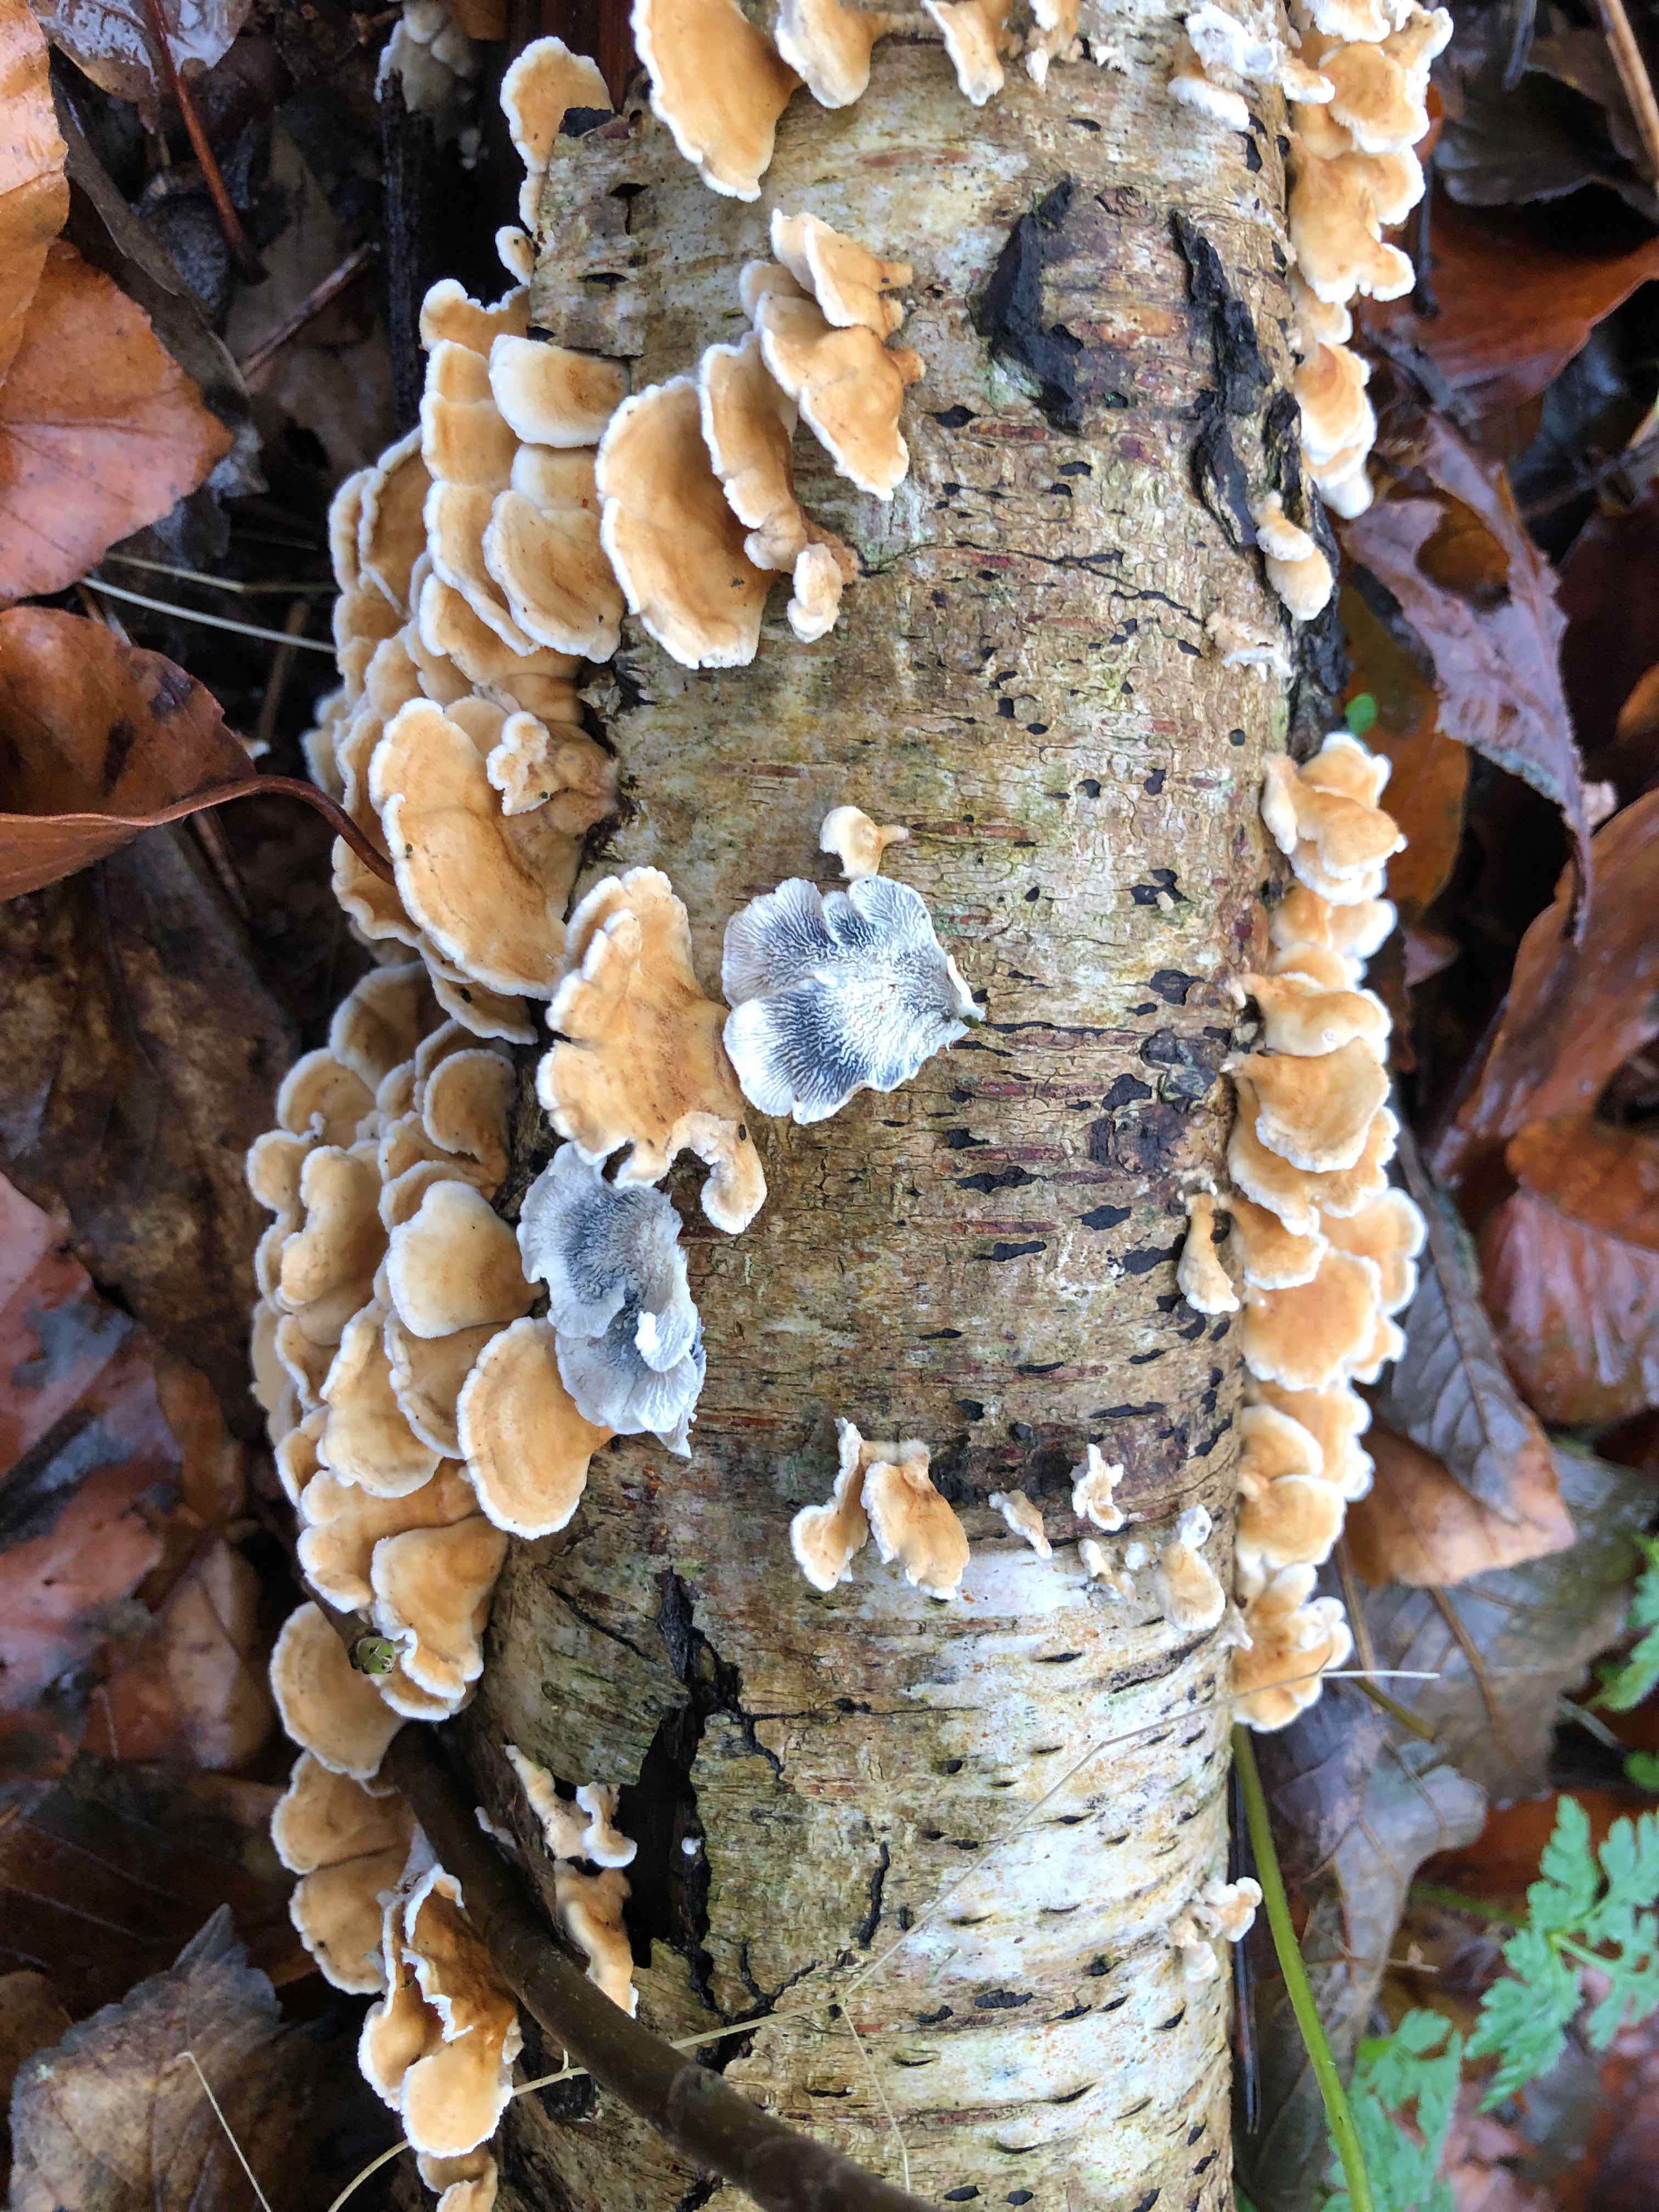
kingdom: Fungi
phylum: Basidiomycota
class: Agaricomycetes
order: Amylocorticiales
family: Amylocorticiaceae
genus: Plicaturopsis
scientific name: Plicaturopsis crispa
